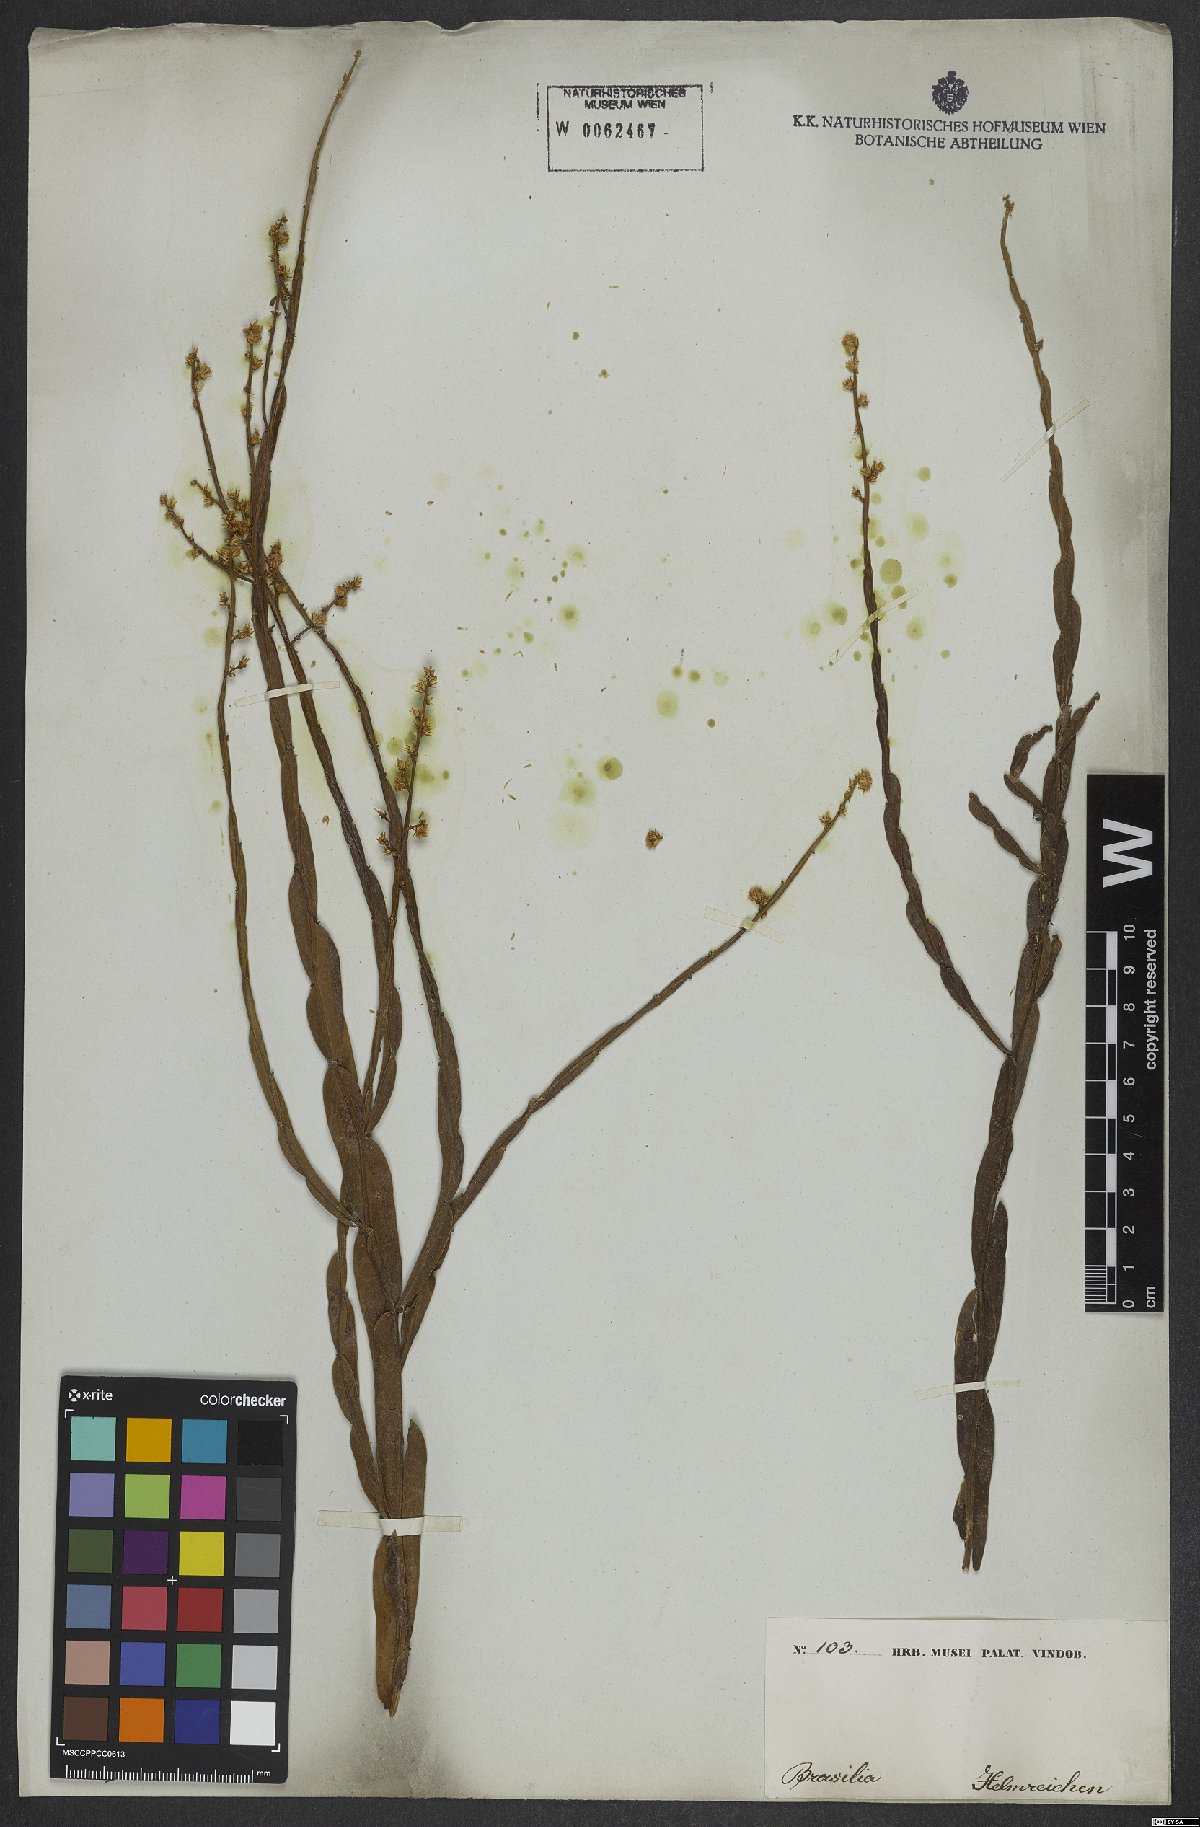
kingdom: Plantae
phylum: Tracheophyta
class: Magnoliopsida
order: Asterales
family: Asteraceae
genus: Baccharis
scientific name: Baccharis articulata
